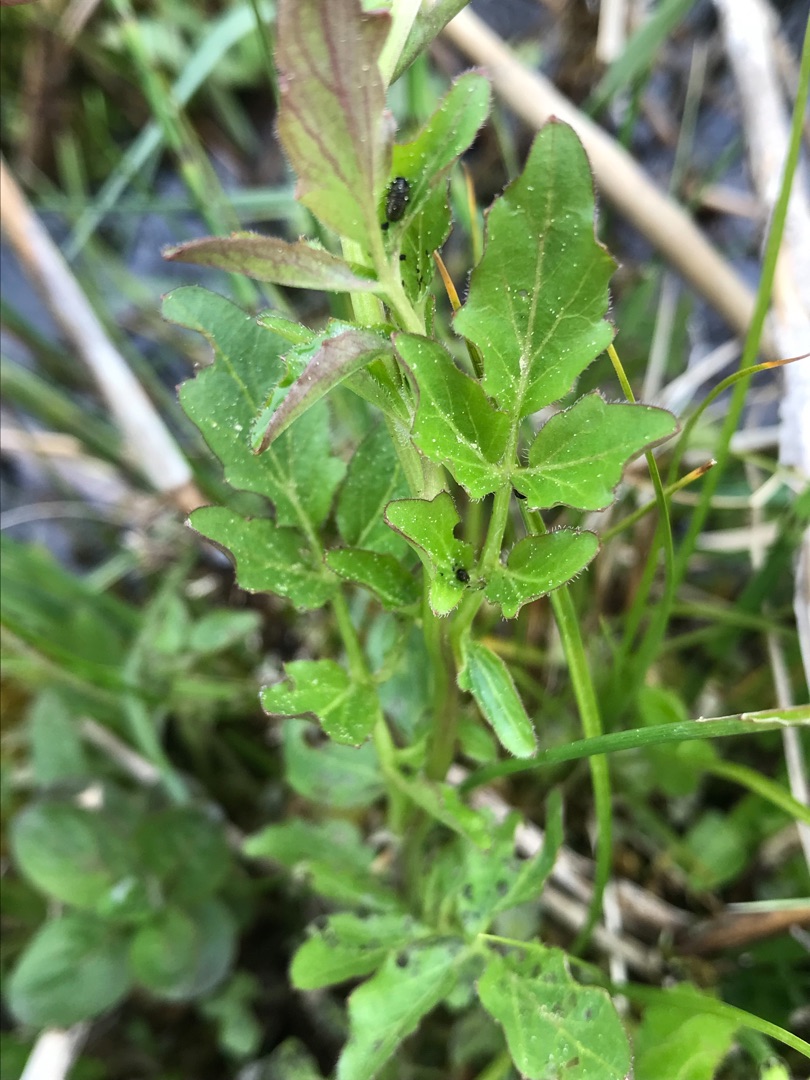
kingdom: Plantae
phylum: Tracheophyta
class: Magnoliopsida
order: Brassicales
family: Brassicaceae
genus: Cardamine
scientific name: Cardamine amara
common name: Vandkarse
